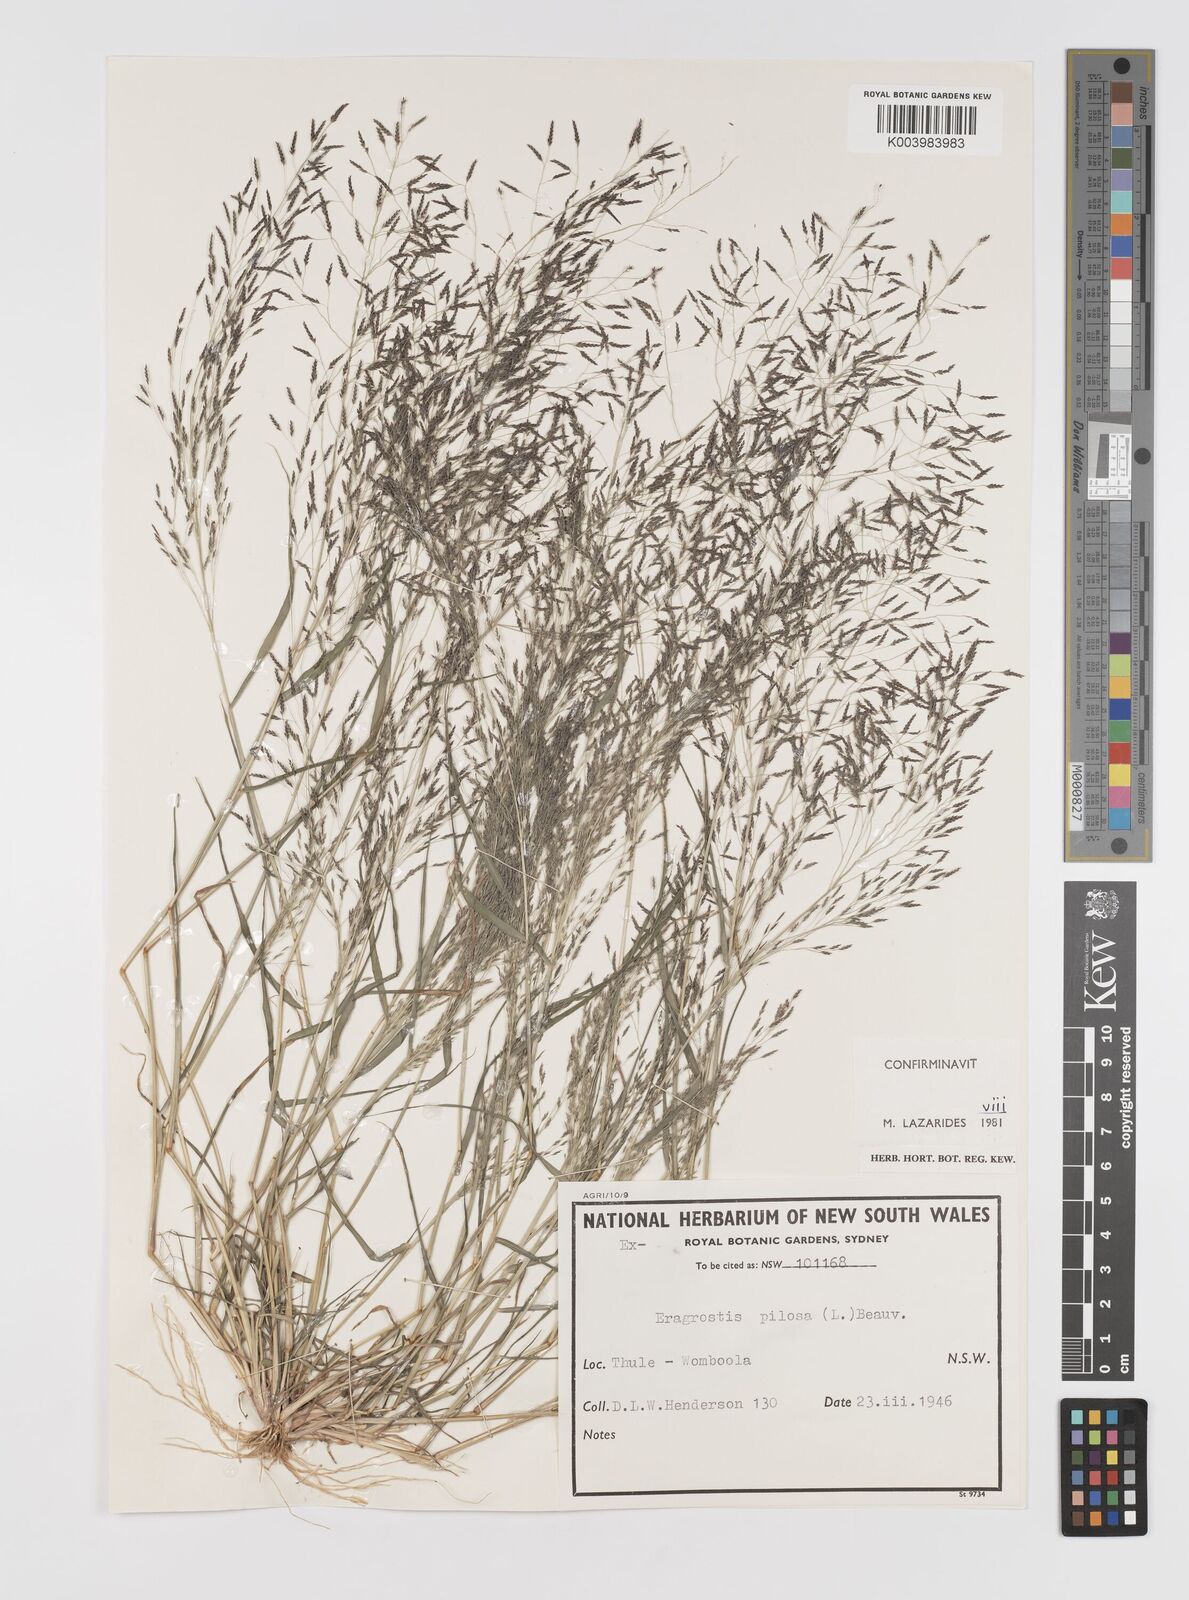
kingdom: Plantae
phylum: Tracheophyta
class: Liliopsida
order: Poales
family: Poaceae
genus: Eragrostis
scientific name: Eragrostis pilosa
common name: Indian lovegrass
